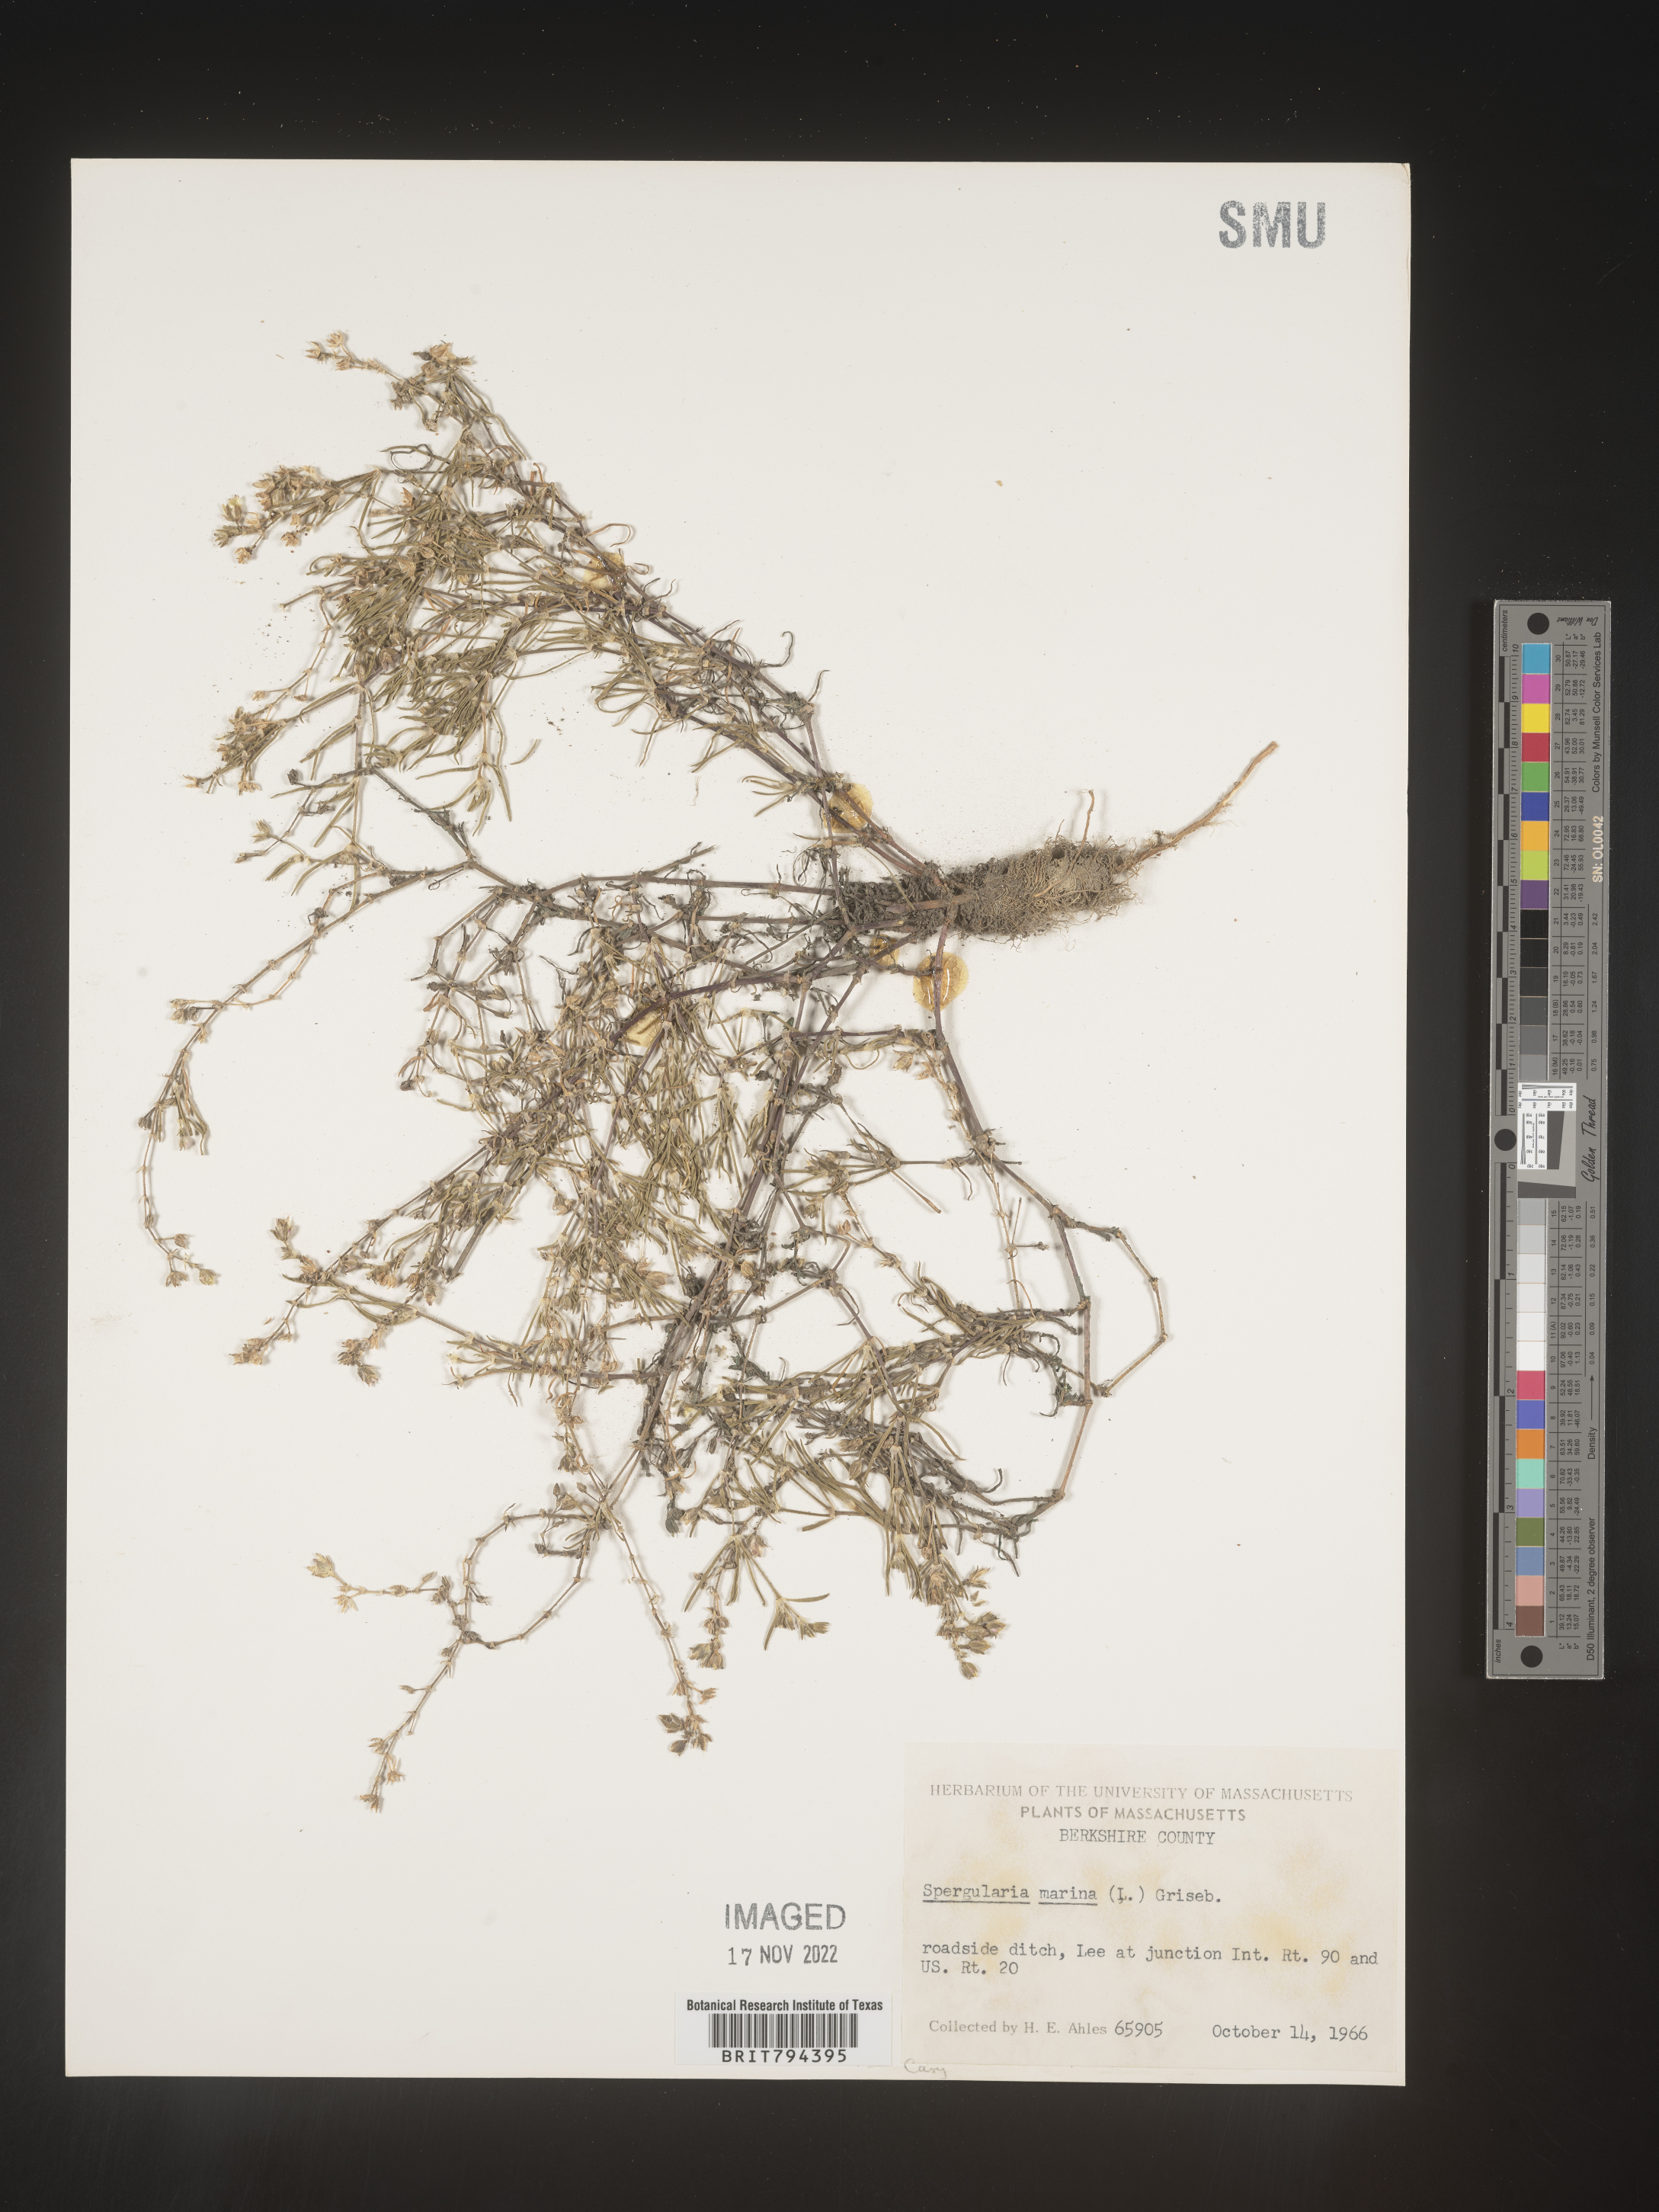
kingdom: Plantae
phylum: Tracheophyta
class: Magnoliopsida
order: Caryophyllales
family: Caryophyllaceae
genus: Spergularia
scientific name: Spergularia marina
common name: Lesser sea-spurrey
